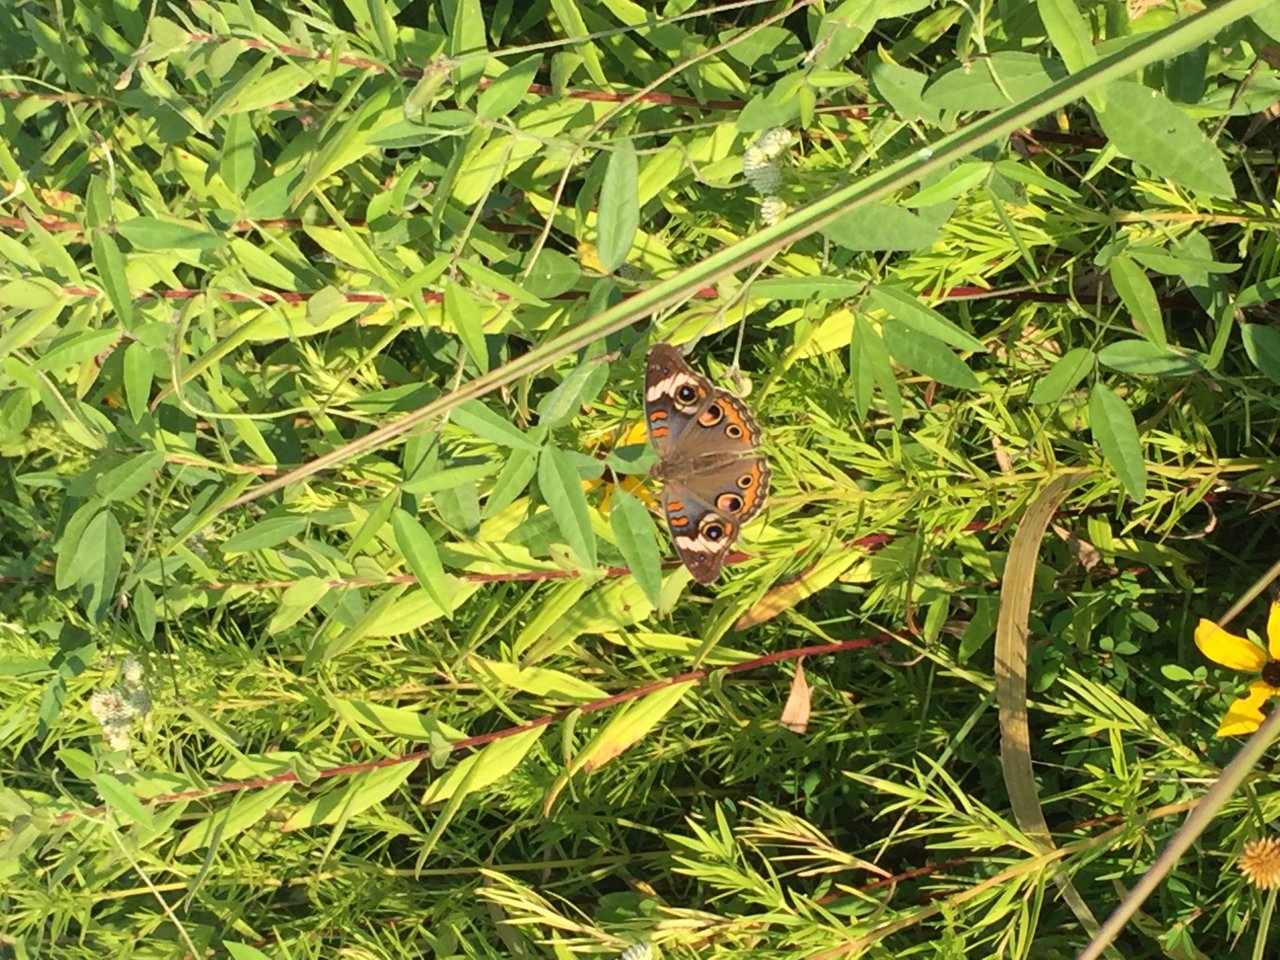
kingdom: Animalia
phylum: Arthropoda
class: Insecta
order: Lepidoptera
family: Nymphalidae
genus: Junonia
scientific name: Junonia coenia
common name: Common Buckeye
